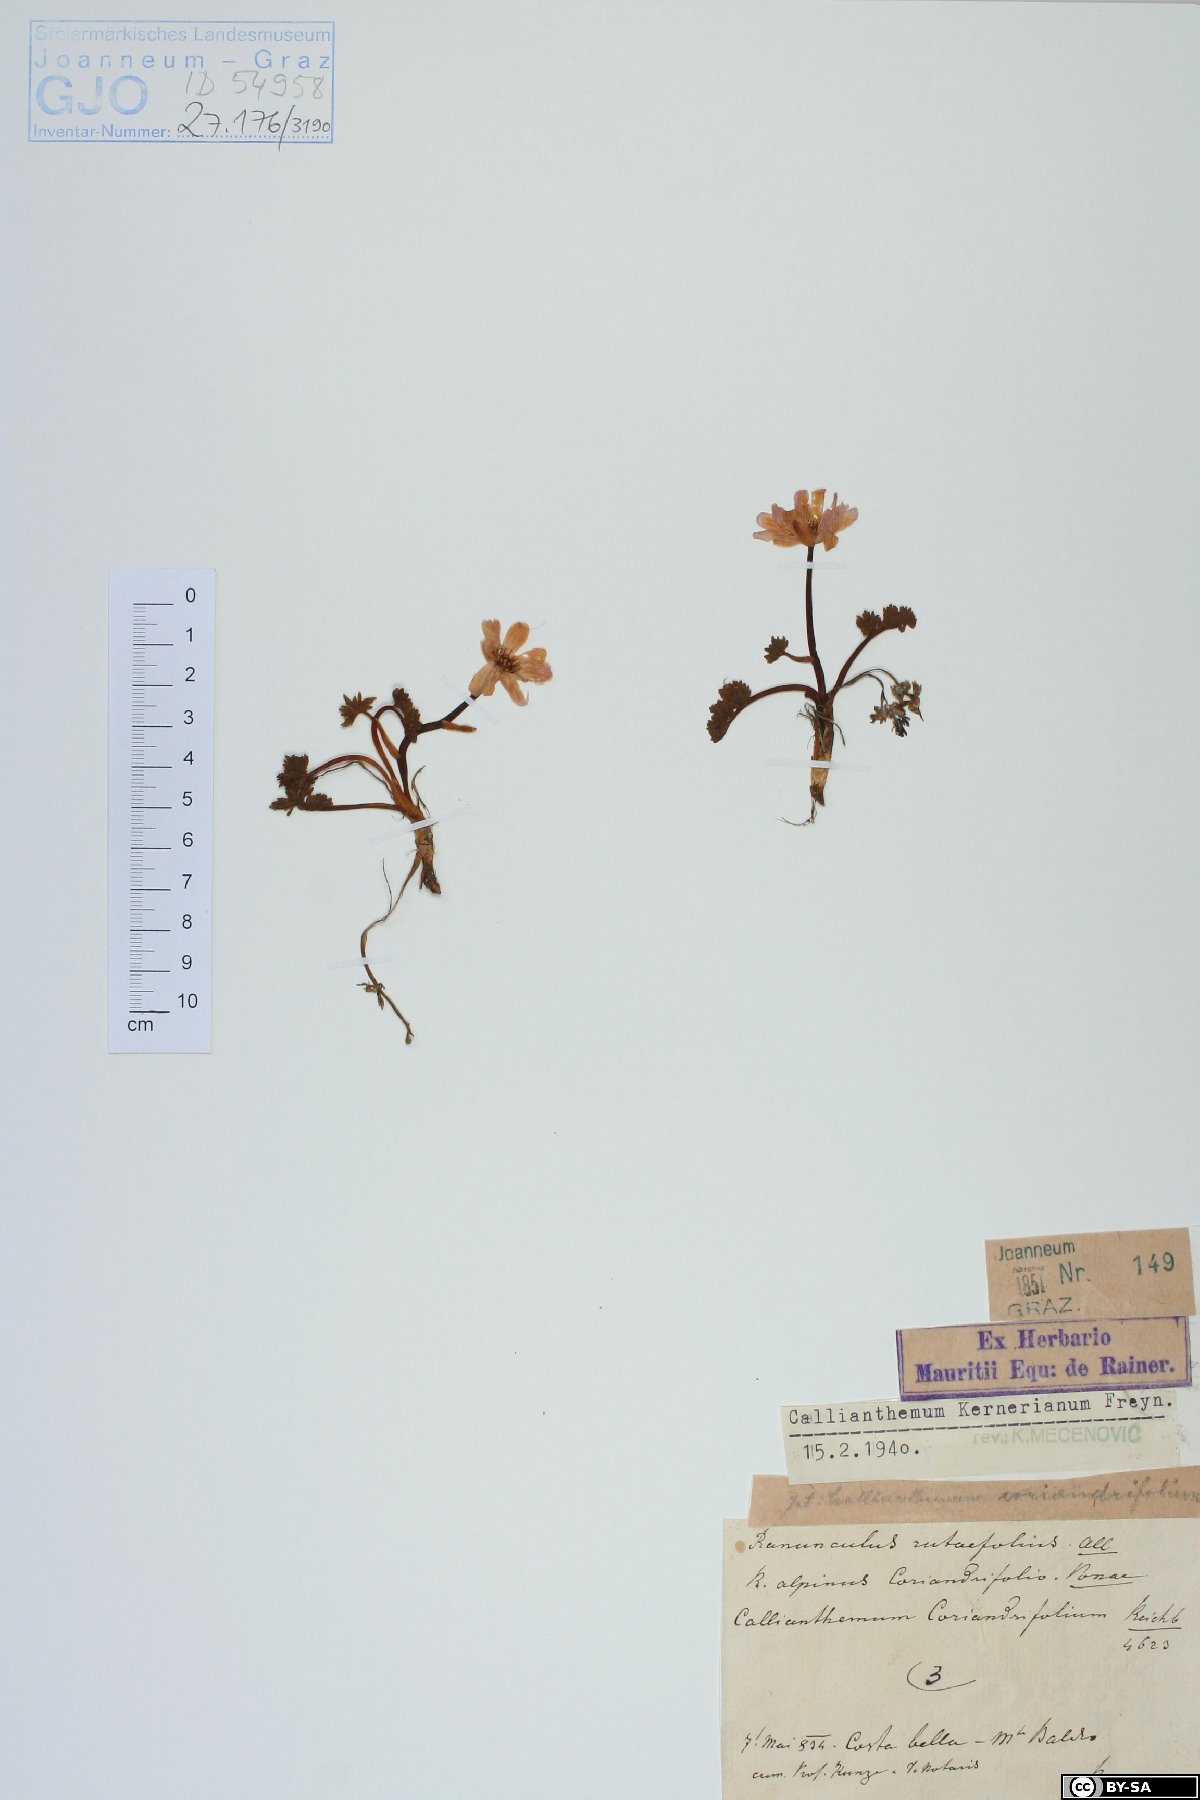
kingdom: Plantae
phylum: Tracheophyta
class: Magnoliopsida
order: Ranunculales
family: Ranunculaceae
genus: Callianthemum
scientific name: Callianthemum kernerianum
